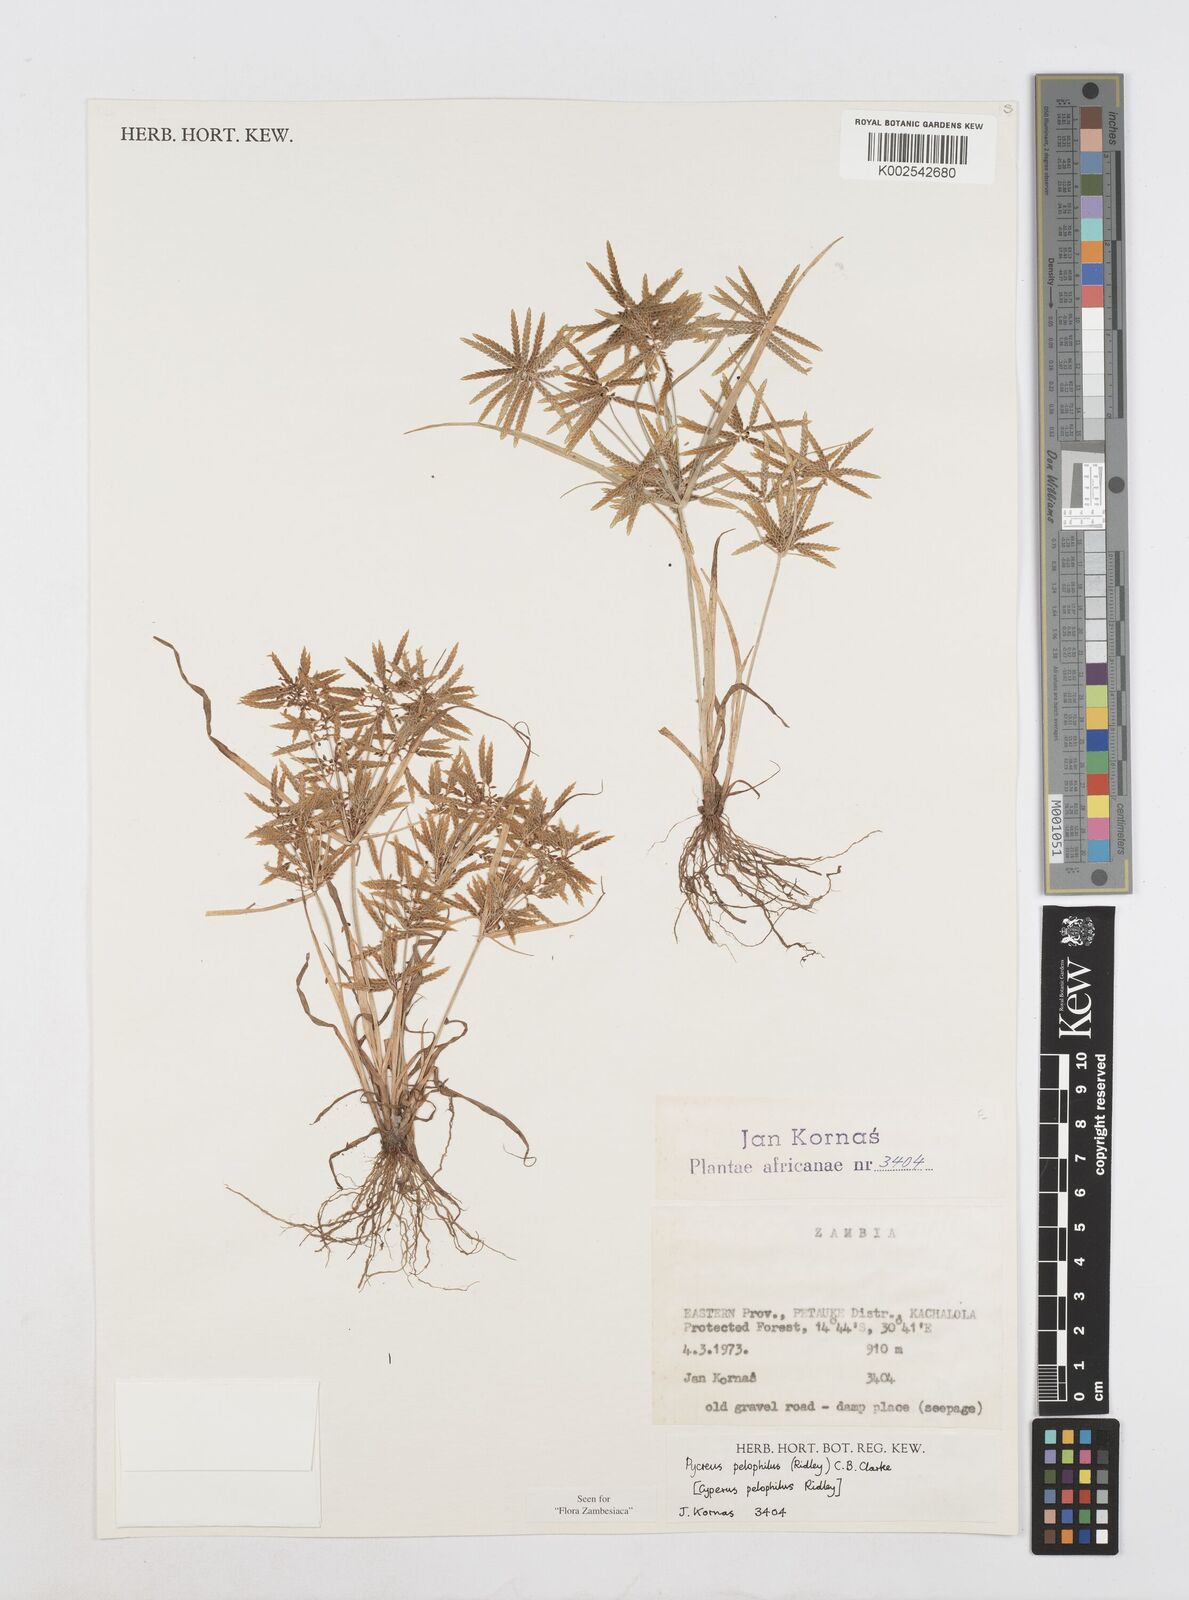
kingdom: Plantae
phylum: Tracheophyta
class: Liliopsida
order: Poales
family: Cyperaceae
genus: Cyperus
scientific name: Cyperus pelophilus
